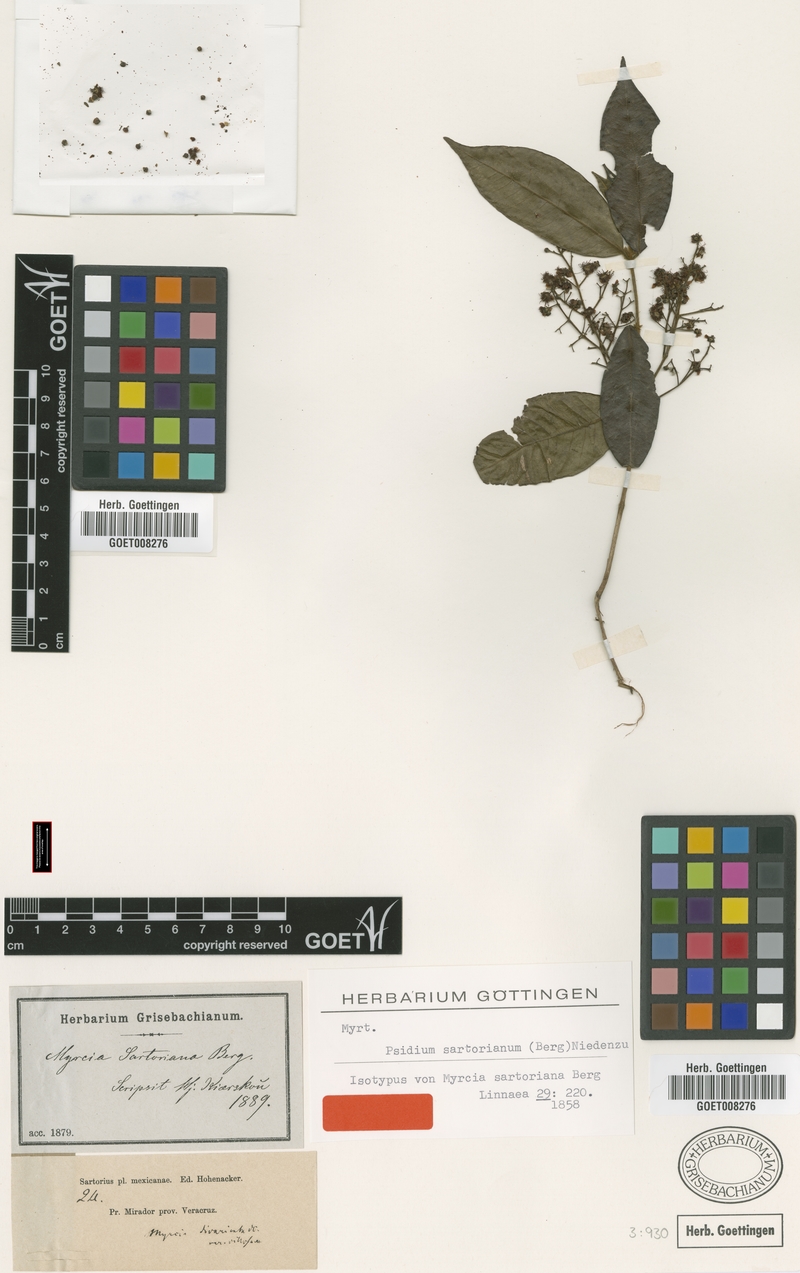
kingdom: Plantae
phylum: Tracheophyta
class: Magnoliopsida
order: Myrtales
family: Myrtaceae
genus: Psidium
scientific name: Psidium sartorianum
